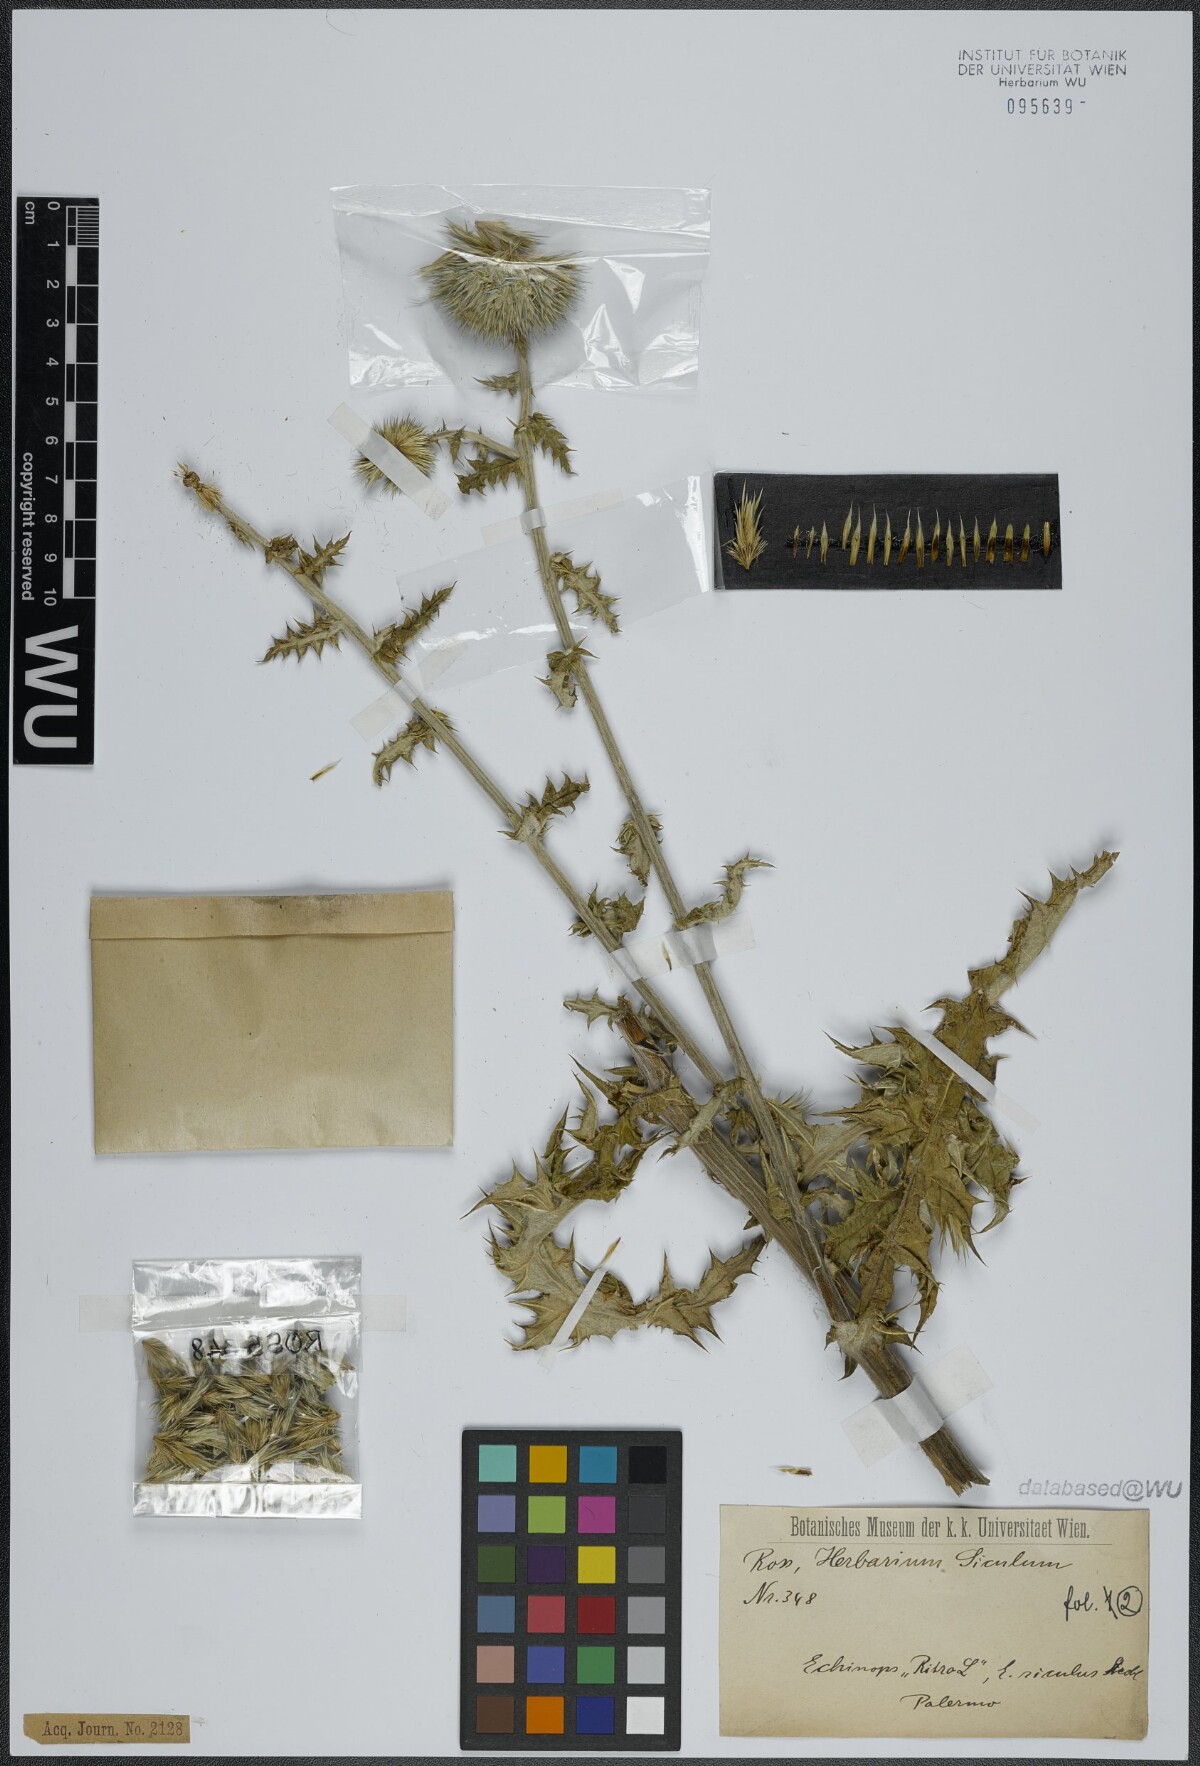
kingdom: Plantae
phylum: Tracheophyta
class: Magnoliopsida
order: Asterales
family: Asteraceae
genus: Echinops
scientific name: Echinops ritro
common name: Globe thistle
